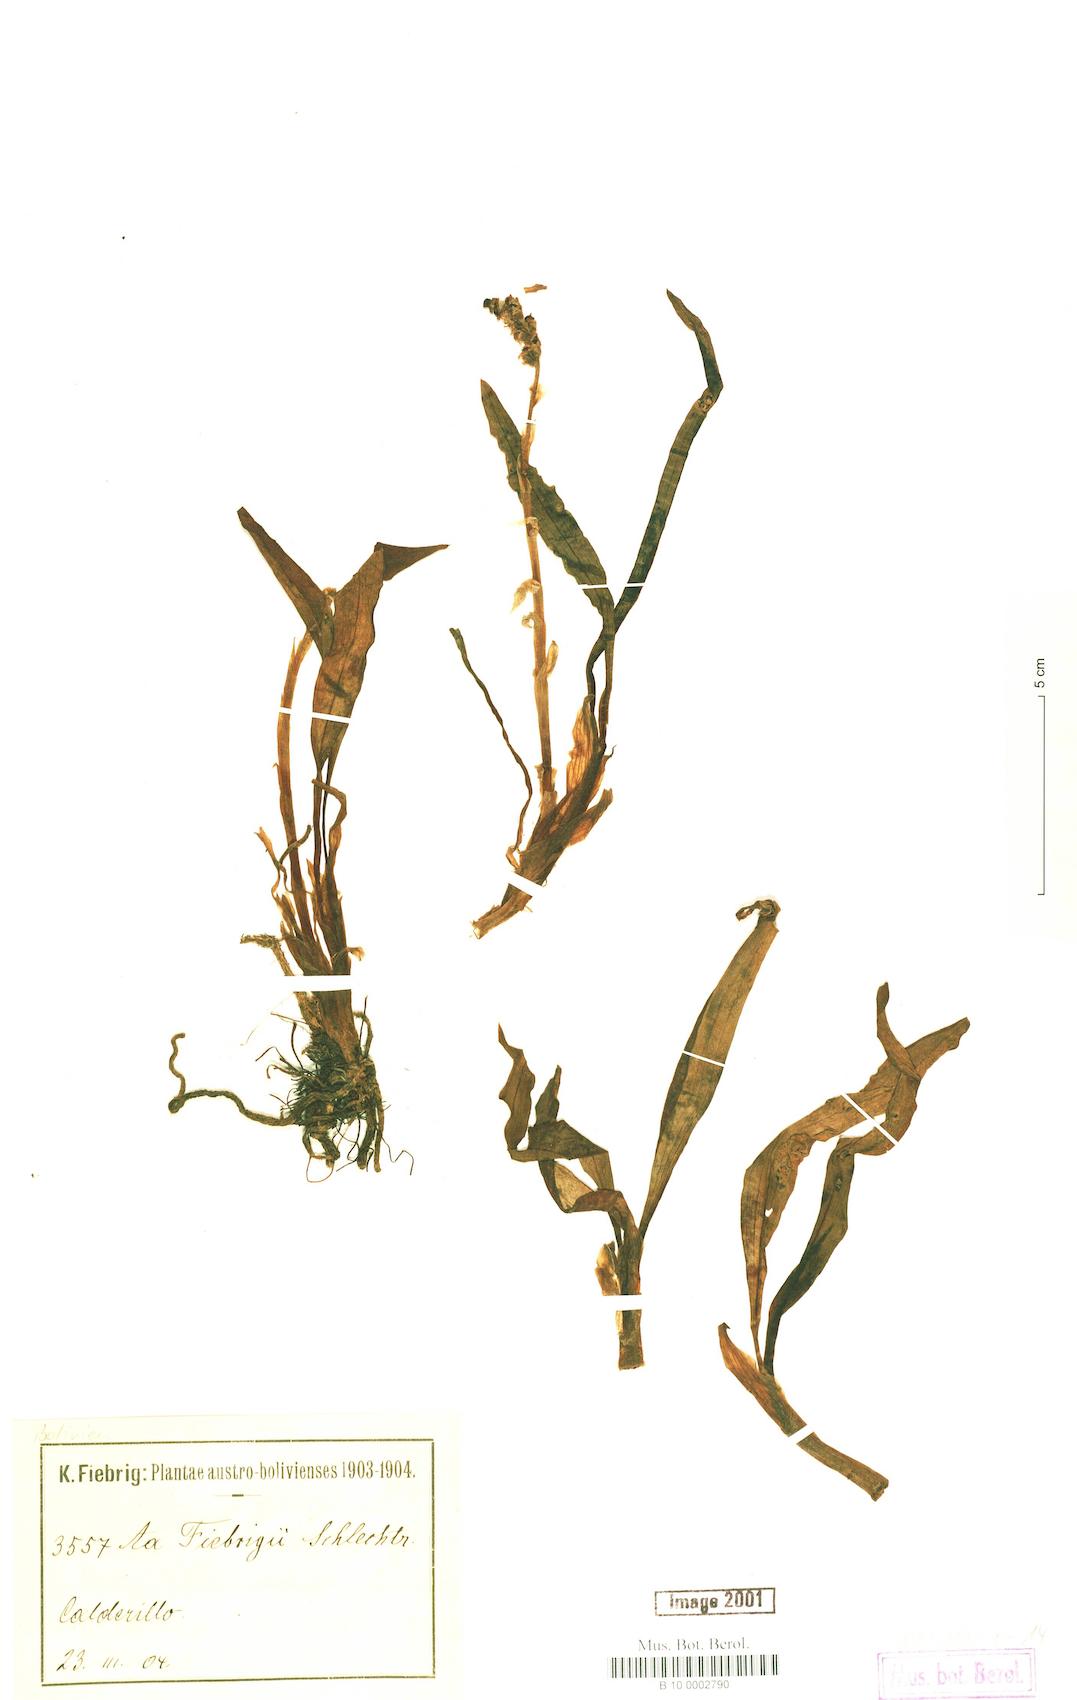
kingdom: Plantae
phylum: Tracheophyta
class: Liliopsida
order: Asparagales
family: Orchidaceae
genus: Aa
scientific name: Aa fiebrigii
